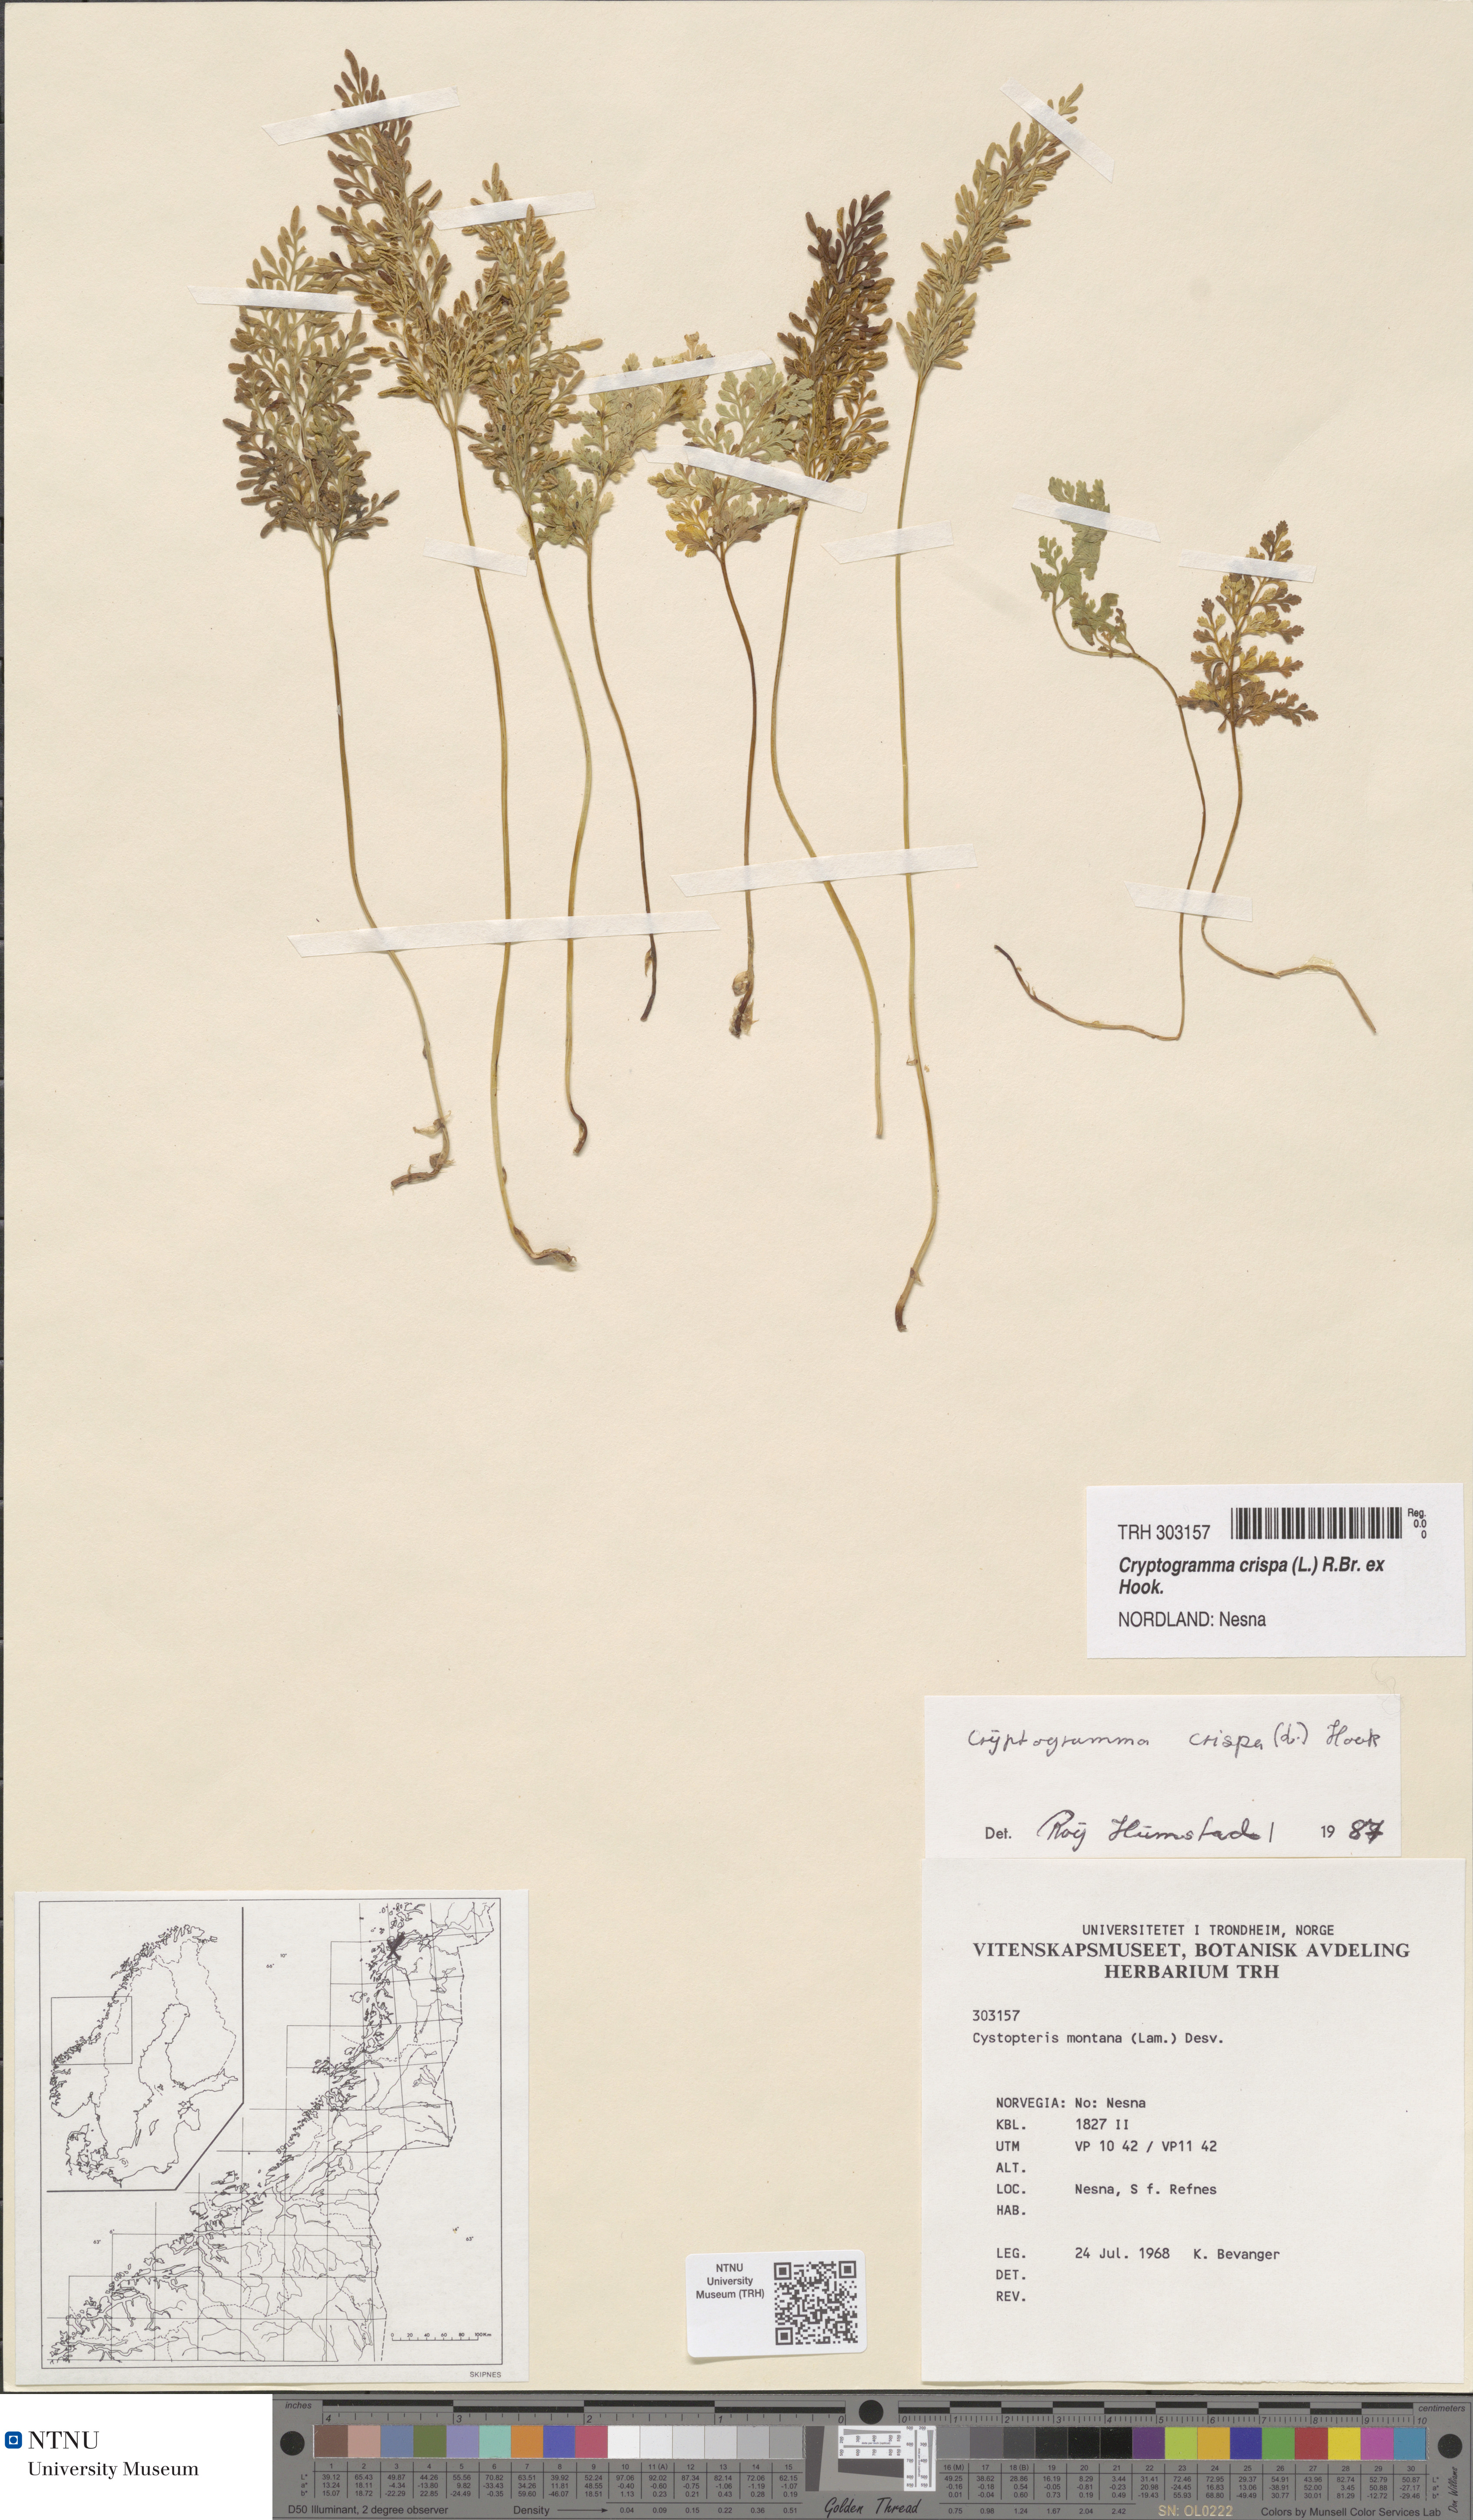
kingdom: Plantae
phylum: Tracheophyta
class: Polypodiopsida
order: Polypodiales
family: Pteridaceae
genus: Cryptogramma
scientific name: Cryptogramma crispa
